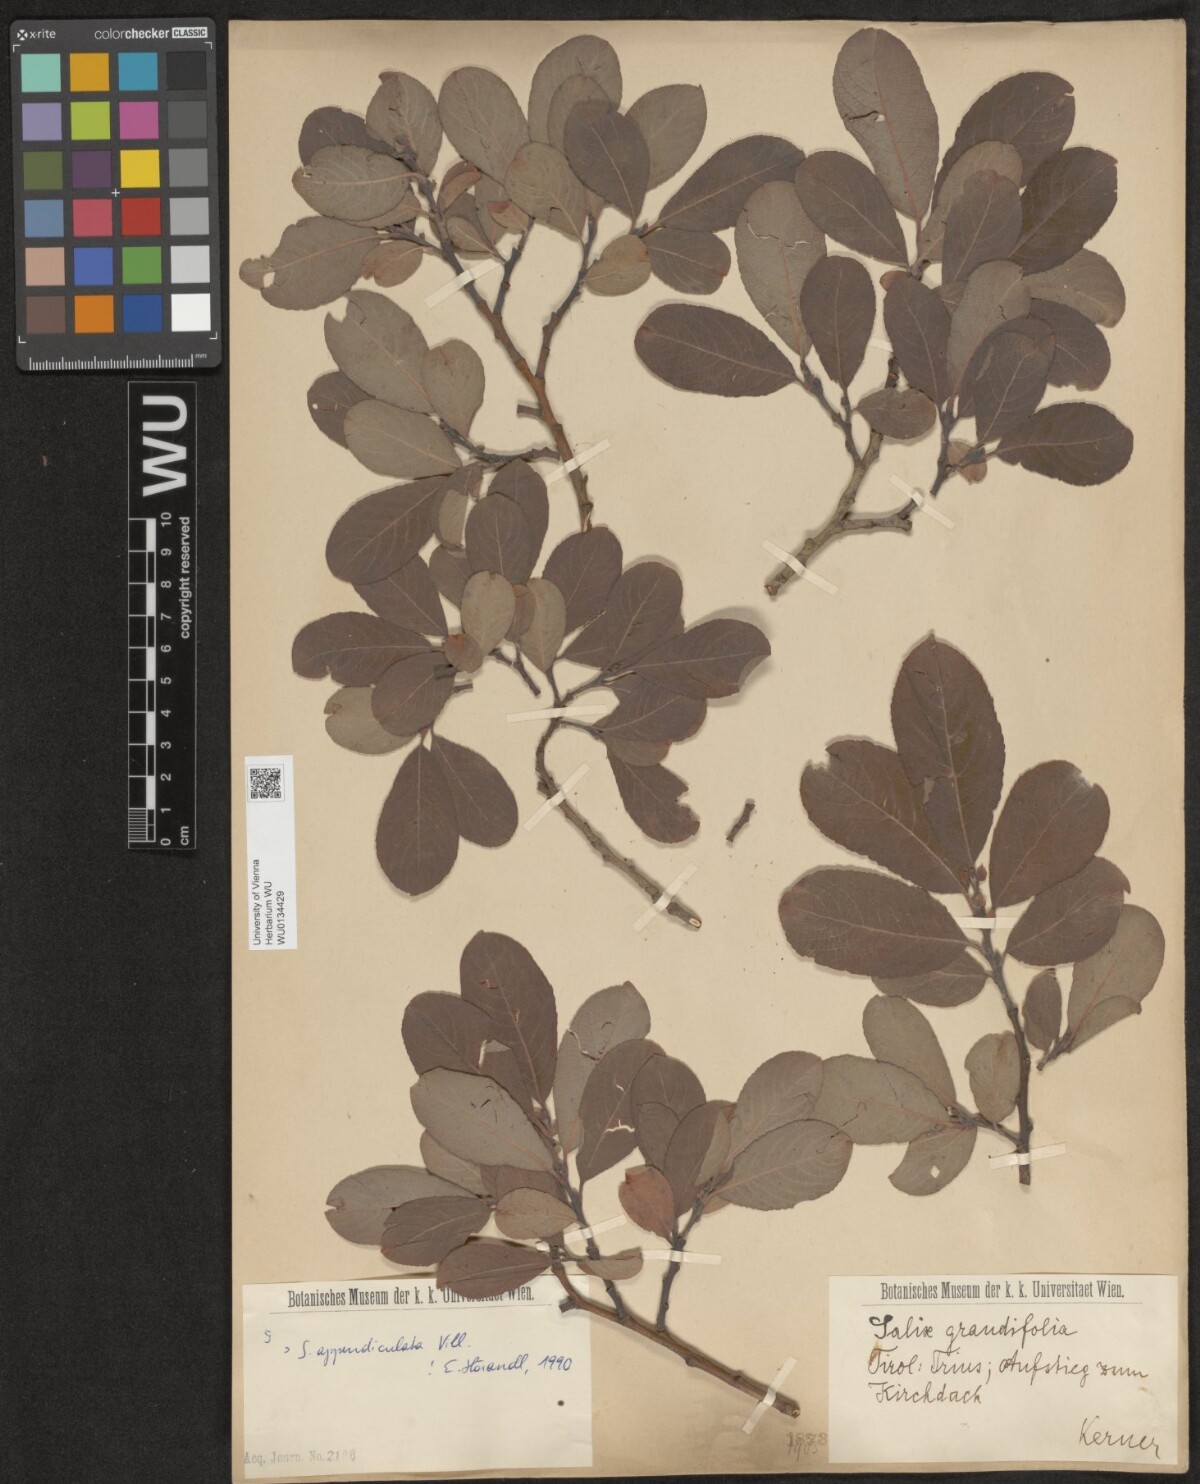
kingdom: Plantae
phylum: Tracheophyta
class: Magnoliopsida
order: Malpighiales
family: Salicaceae
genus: Salix
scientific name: Salix appendiculata
